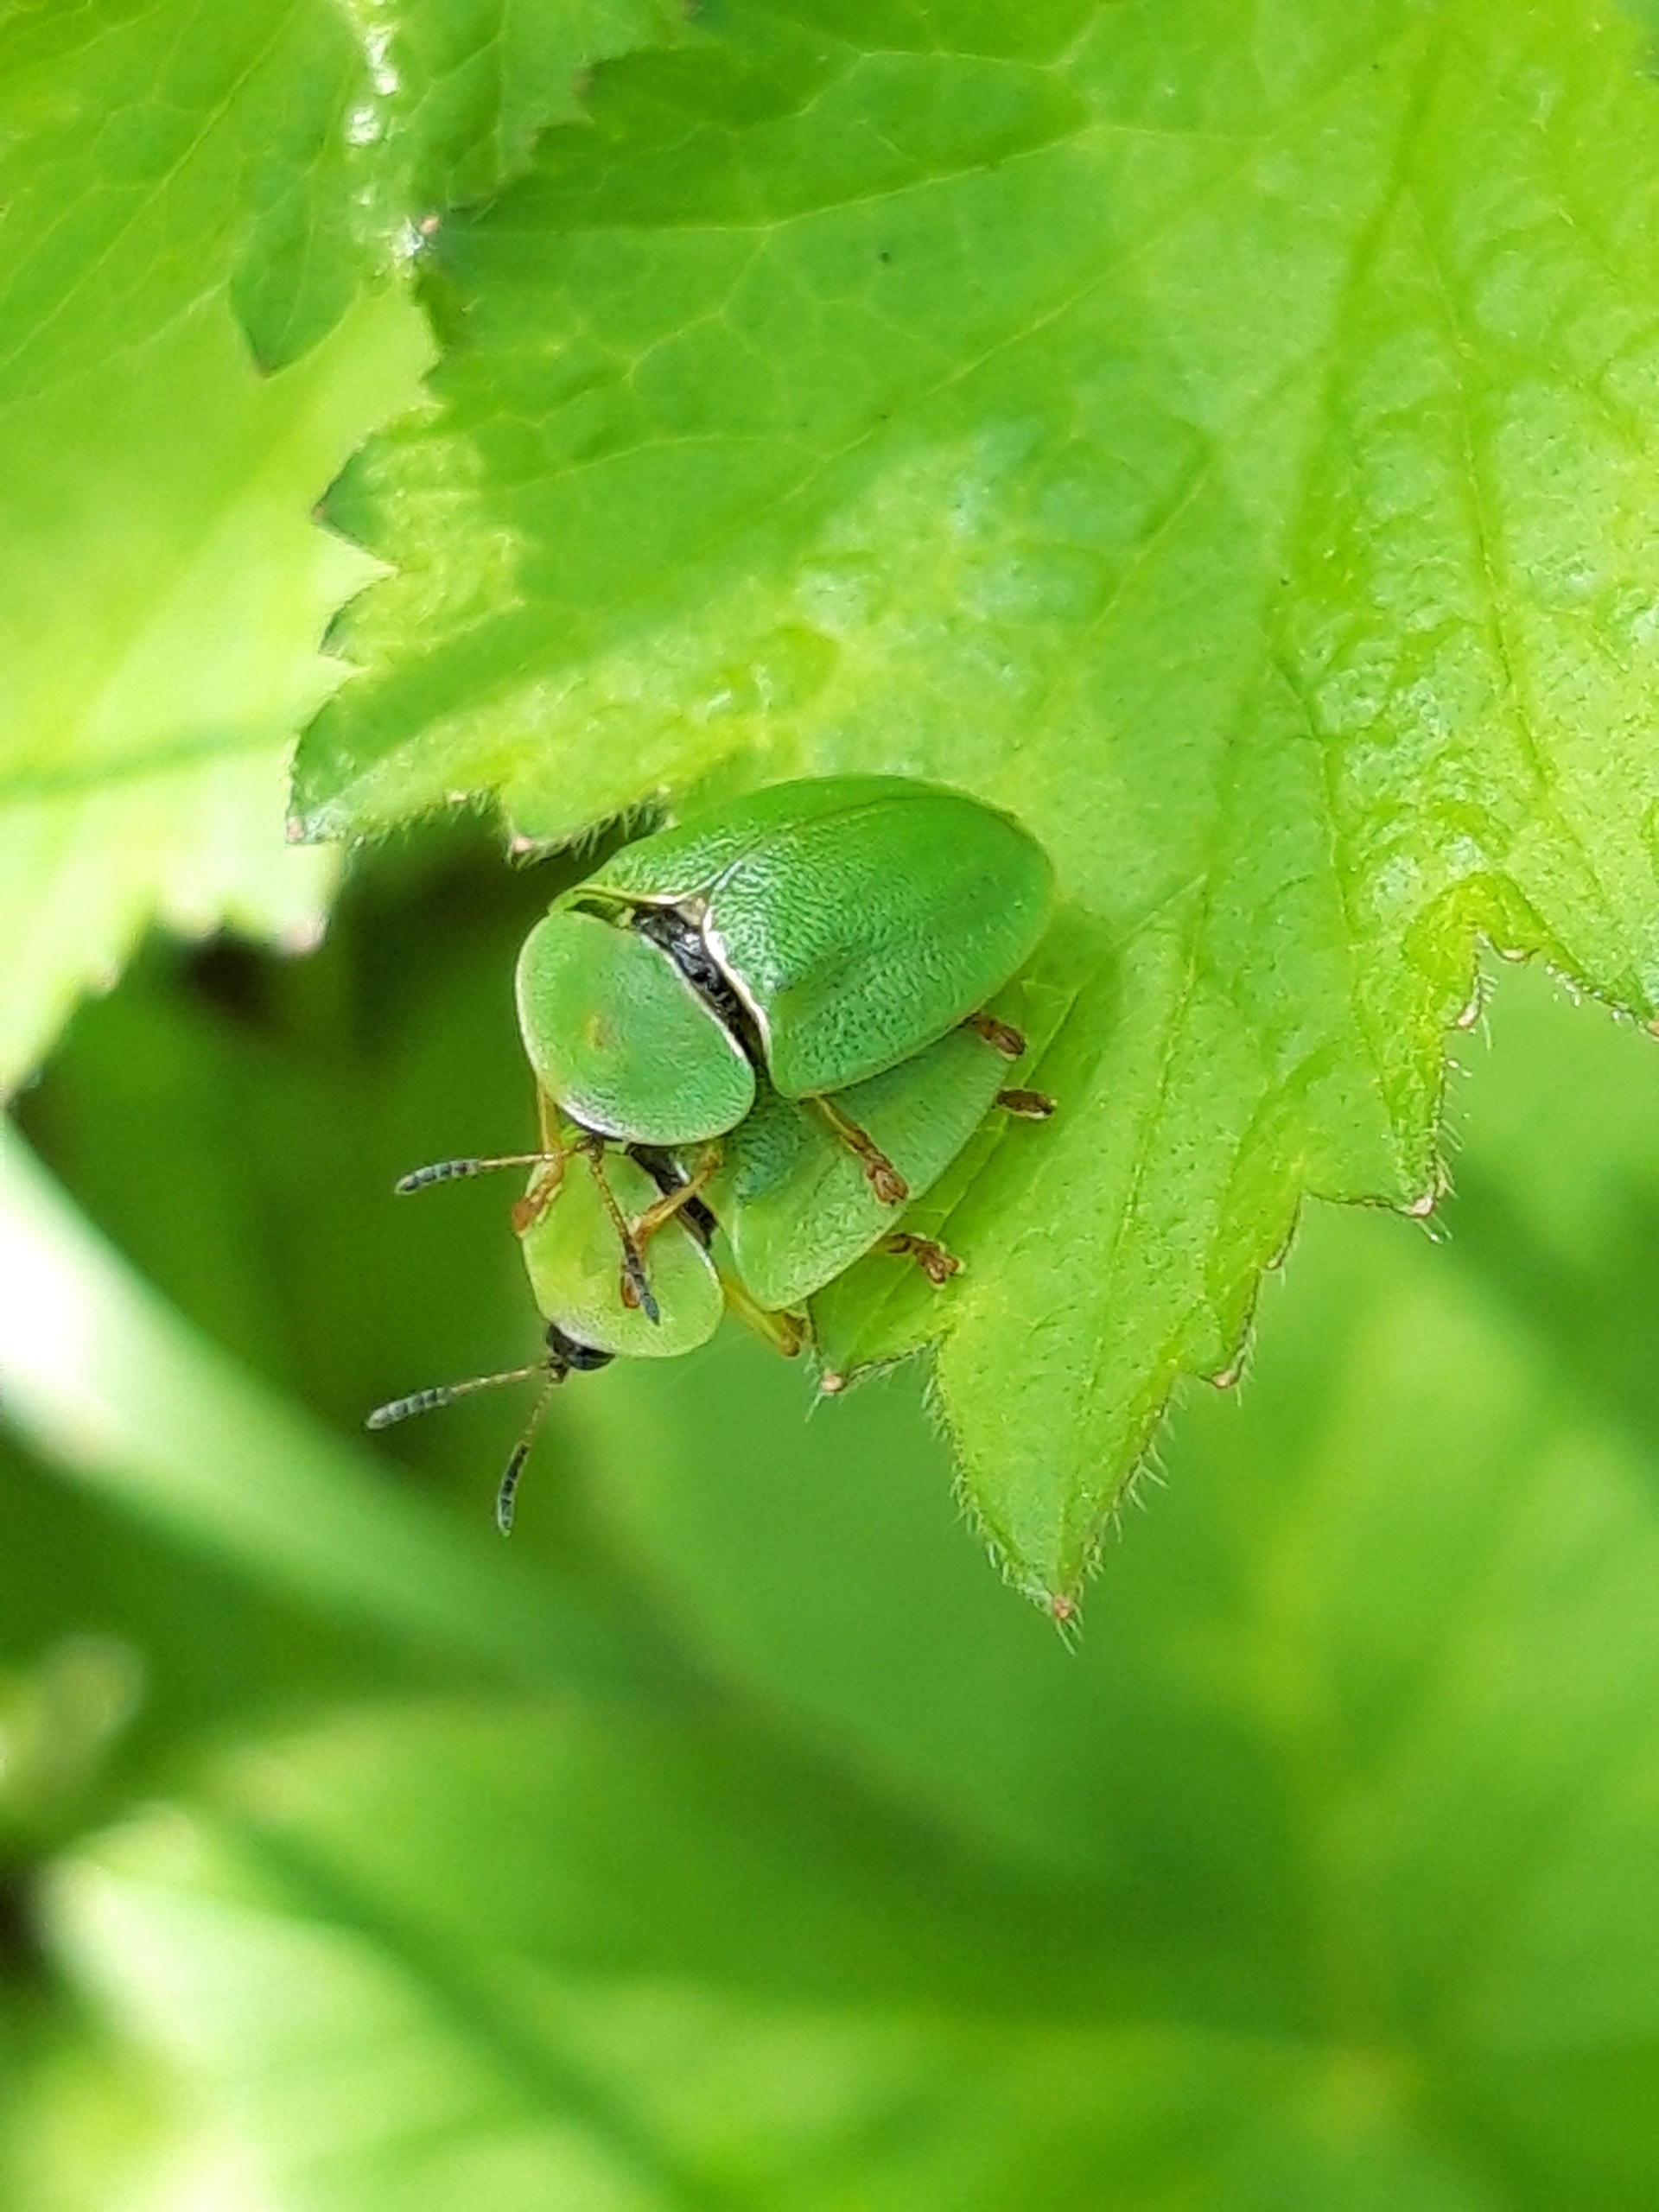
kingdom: Animalia
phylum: Arthropoda
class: Insecta
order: Coleoptera
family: Chrysomelidae
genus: Cassida
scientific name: Cassida viridis
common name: Stor skjoldbille
